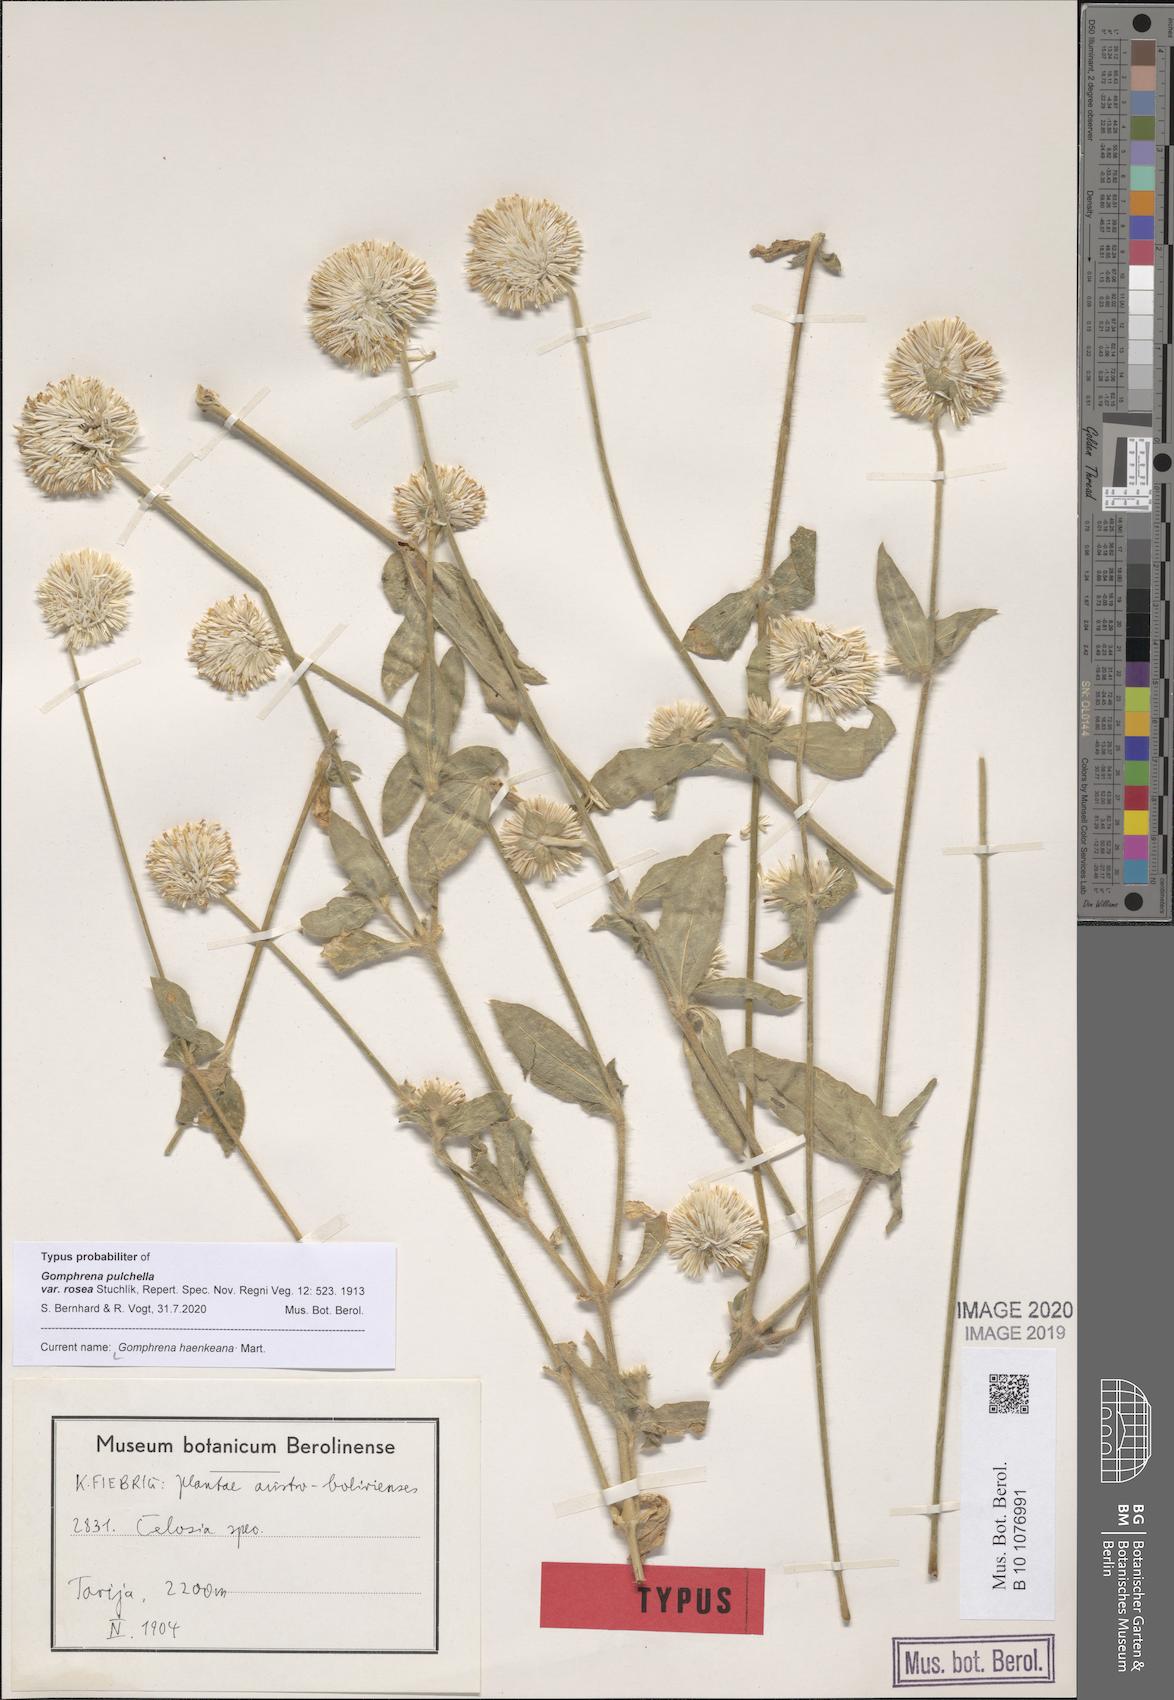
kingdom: Plantae
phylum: Tracheophyta
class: Magnoliopsida
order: Caryophyllales
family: Amaranthaceae
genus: Gomphrena
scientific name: Gomphrena haenkeana
